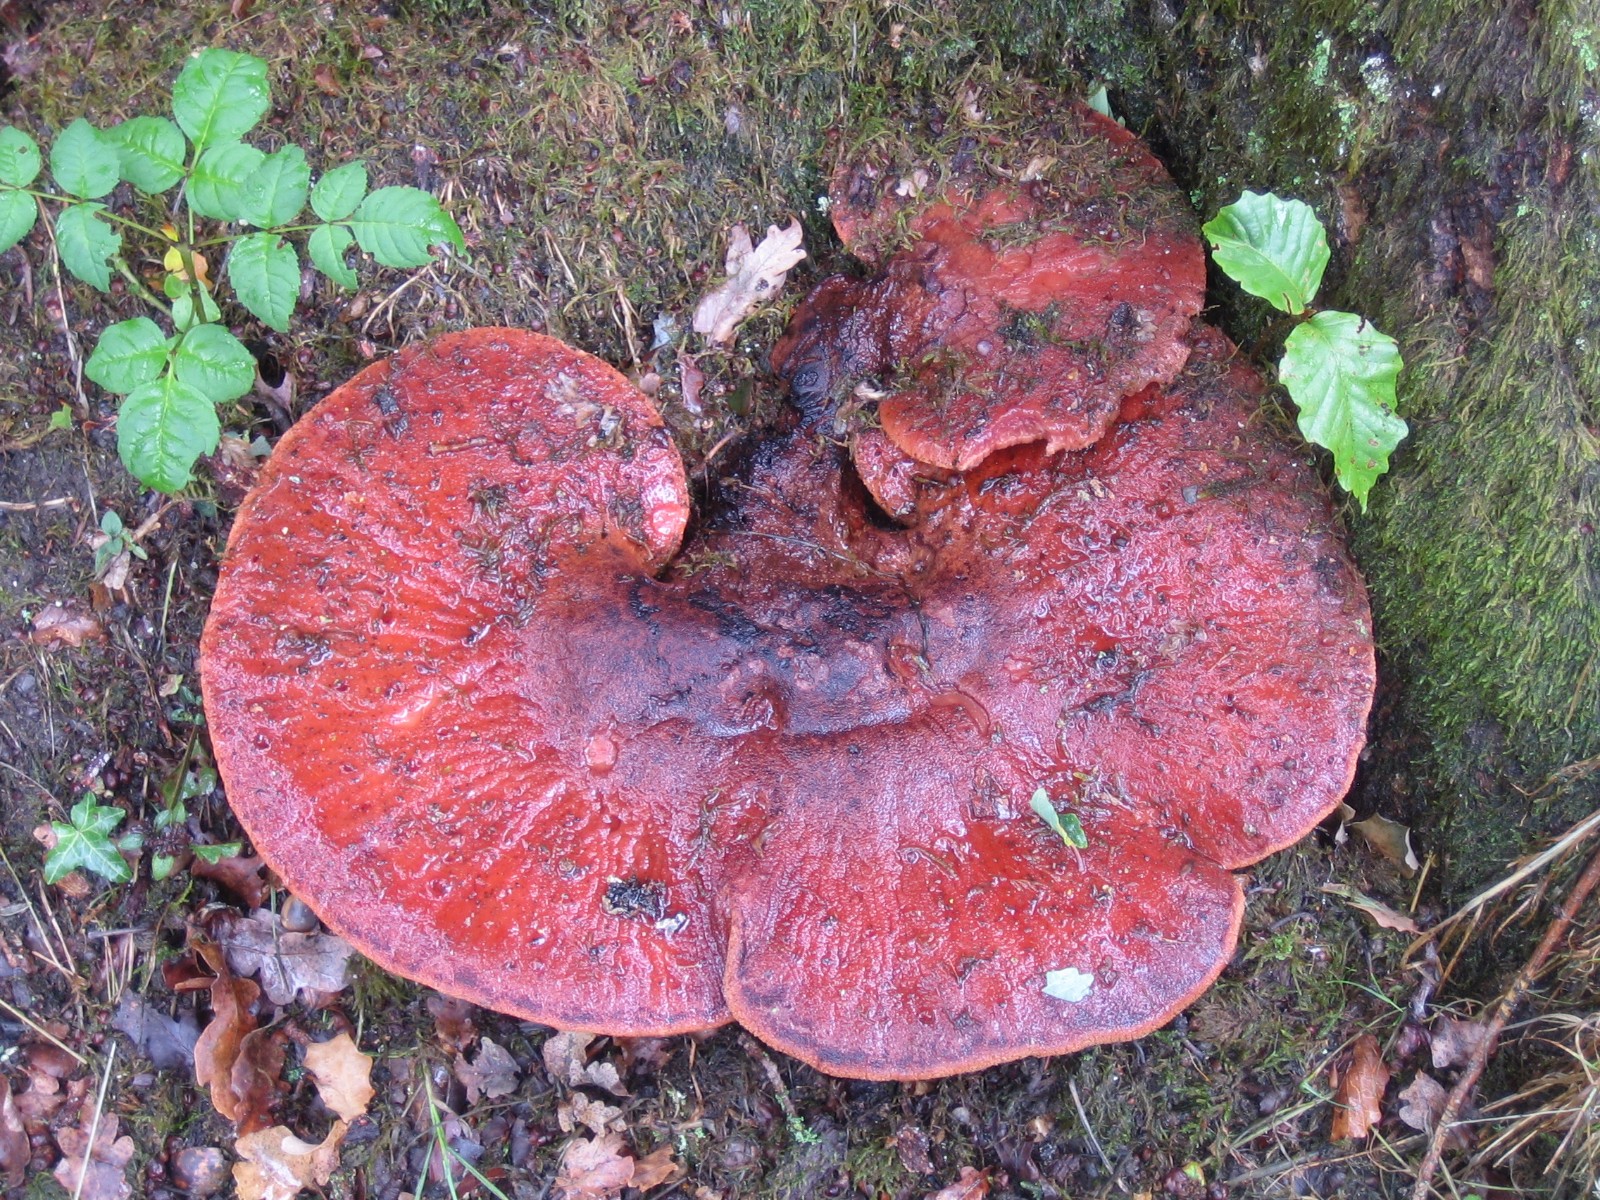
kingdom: Fungi
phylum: Basidiomycota
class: Agaricomycetes
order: Agaricales
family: Fistulinaceae
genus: Fistulina
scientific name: Fistulina hepatica
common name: oksetunge
